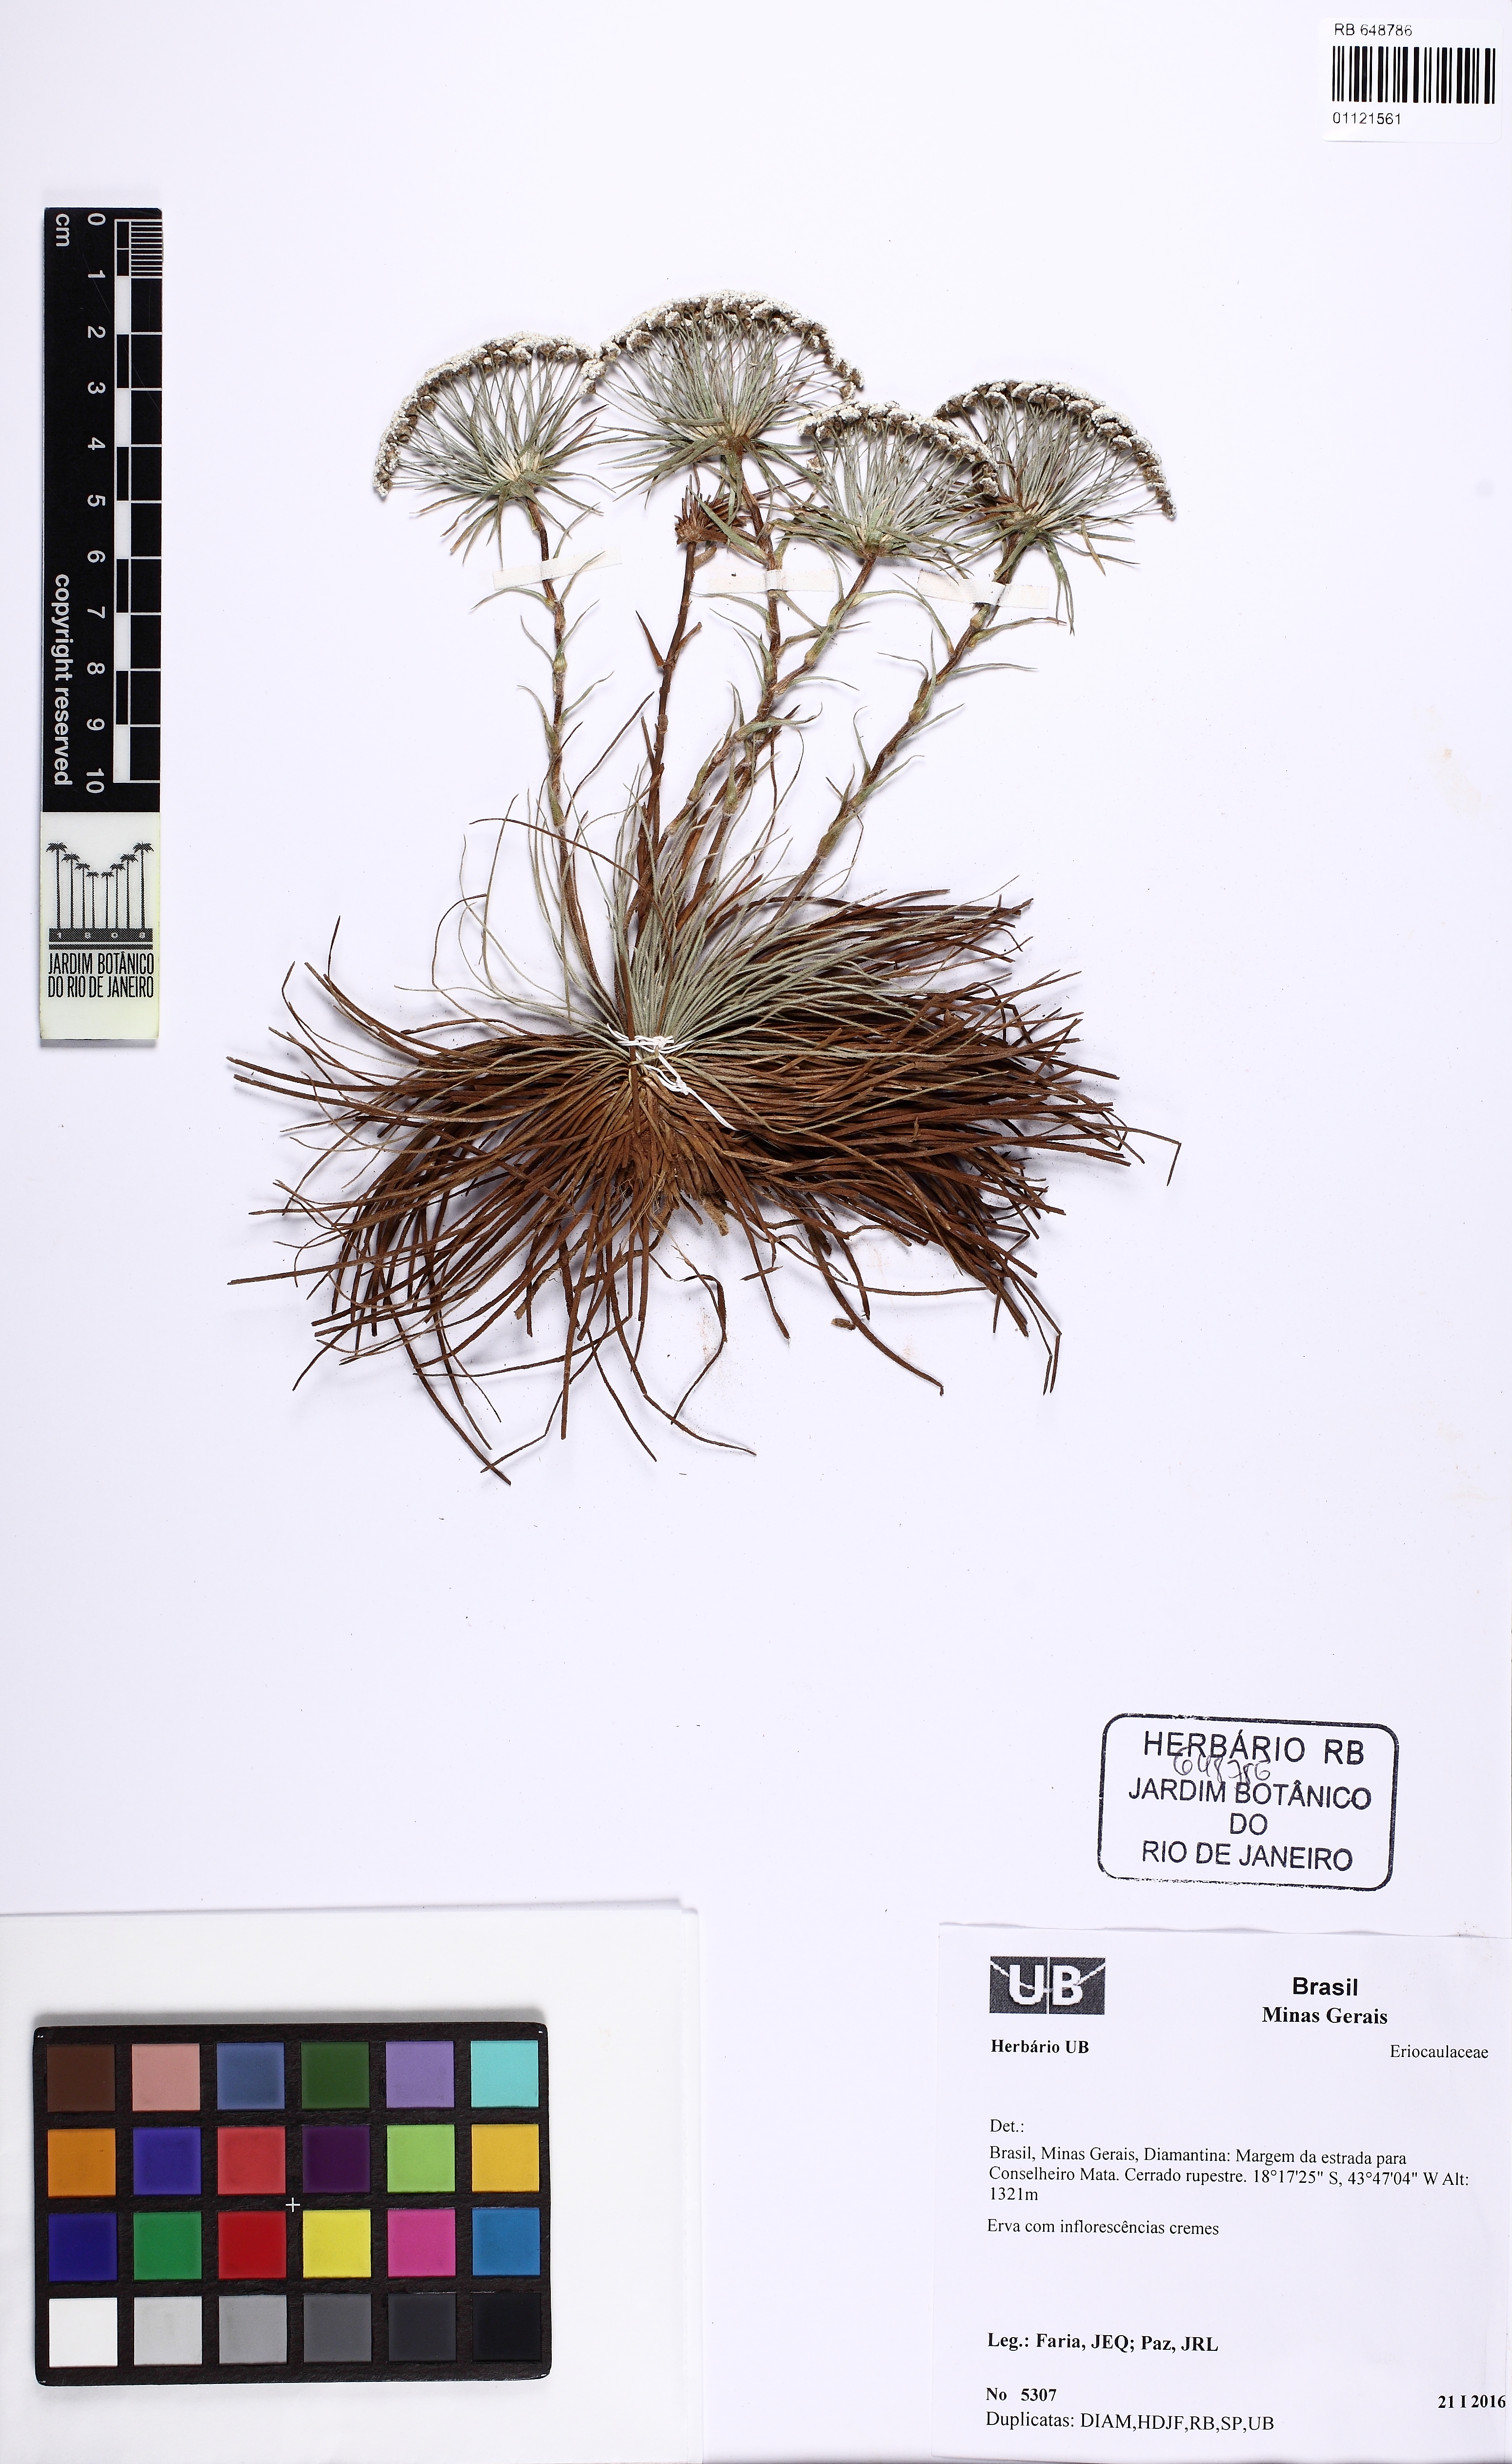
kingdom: Plantae
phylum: Tracheophyta
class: Liliopsida
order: Poales
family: Eriocaulaceae
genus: Paepalanthus
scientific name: Paepalanthus brachypus
